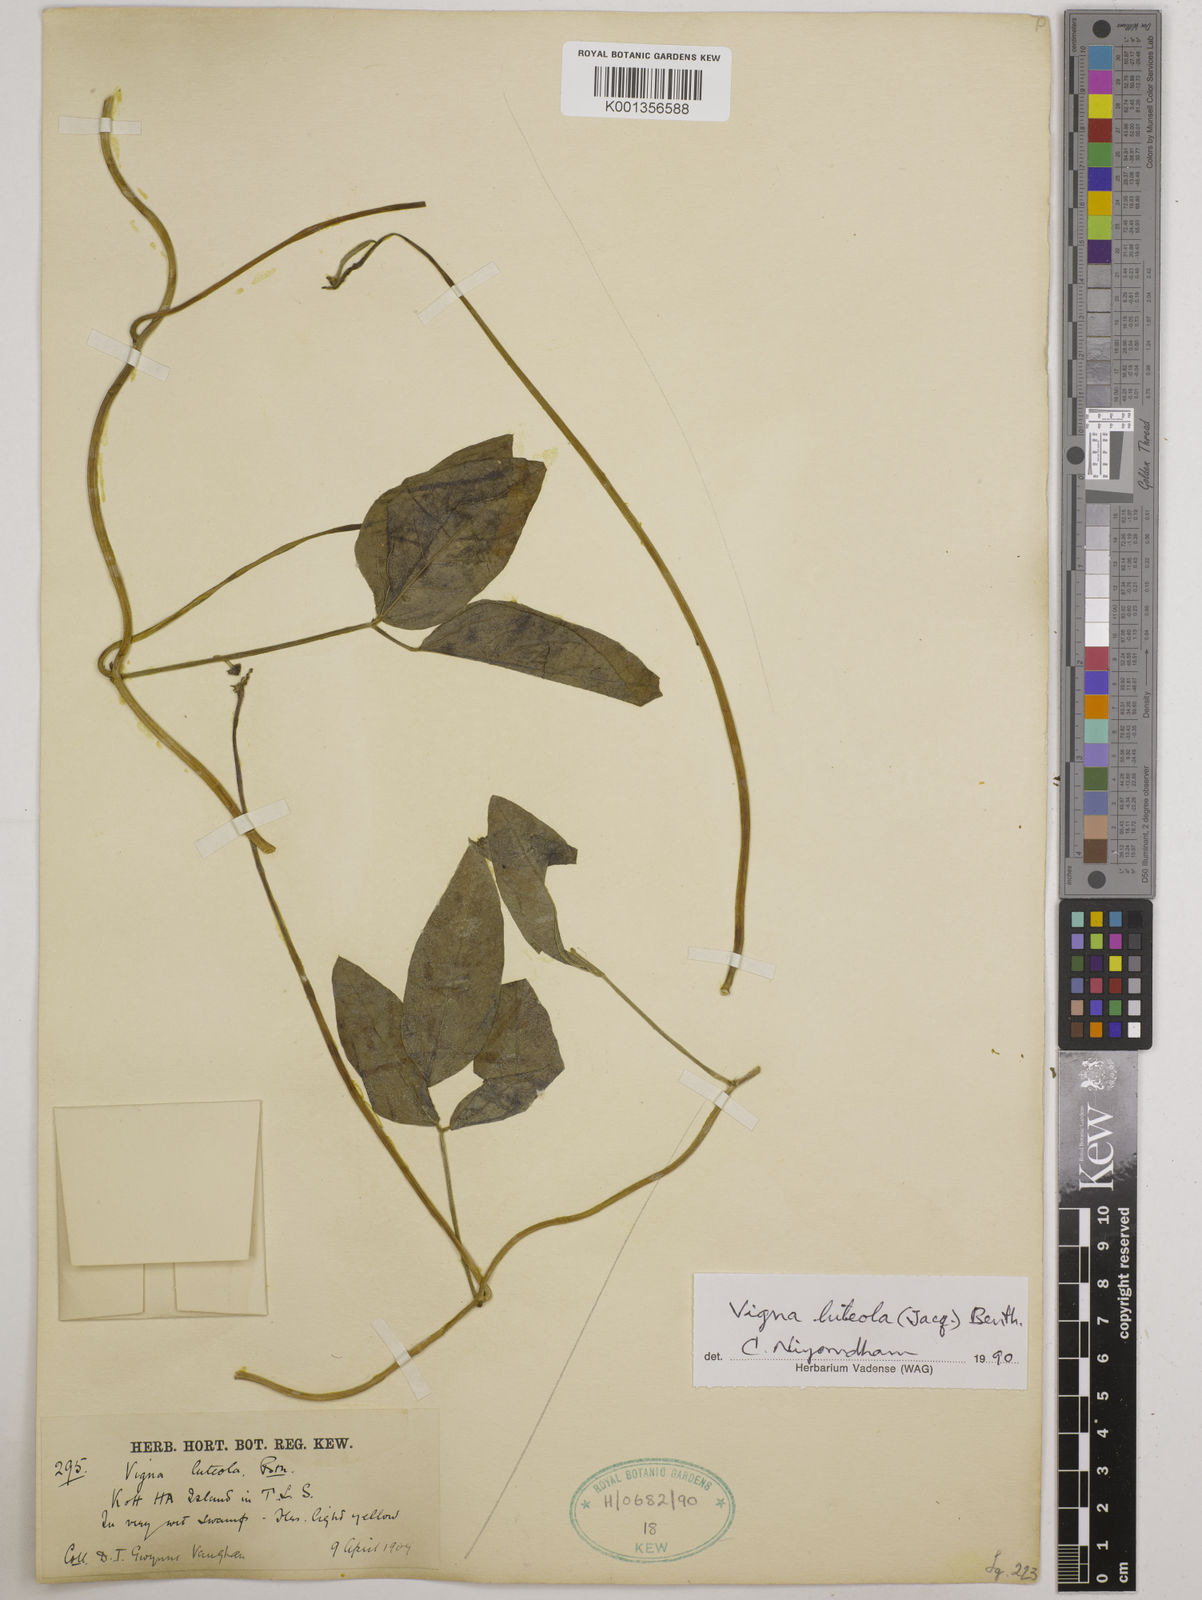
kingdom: Plantae
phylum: Tracheophyta
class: Magnoliopsida
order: Fabales
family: Fabaceae
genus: Vigna
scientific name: Vigna luteola
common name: Hairypod cowpea
